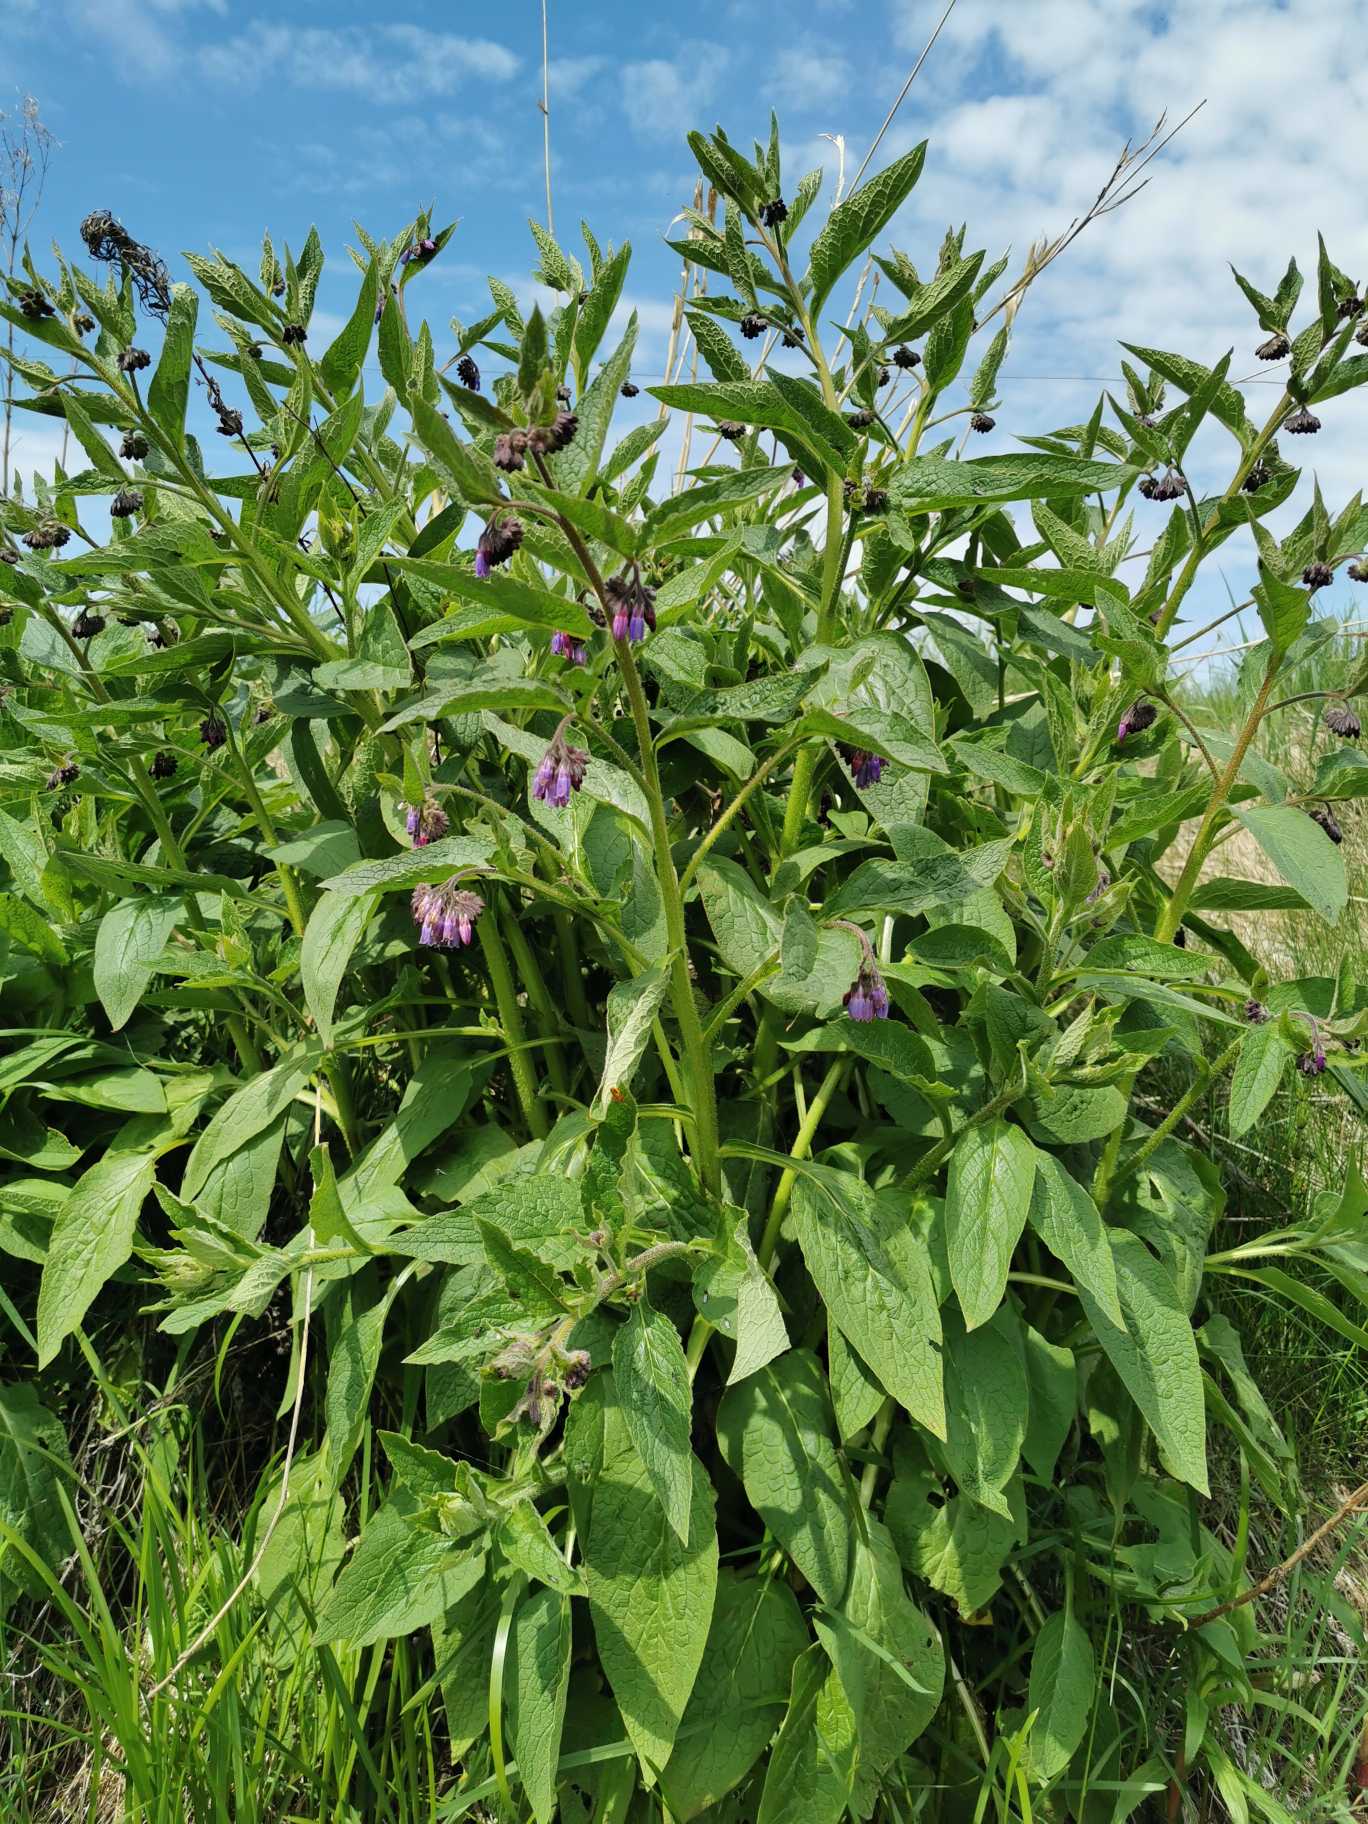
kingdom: Plantae
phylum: Tracheophyta
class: Magnoliopsida
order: Boraginales
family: Boraginaceae
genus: Symphytum
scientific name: Symphytum uplandicum
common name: Foder-kulsukker
